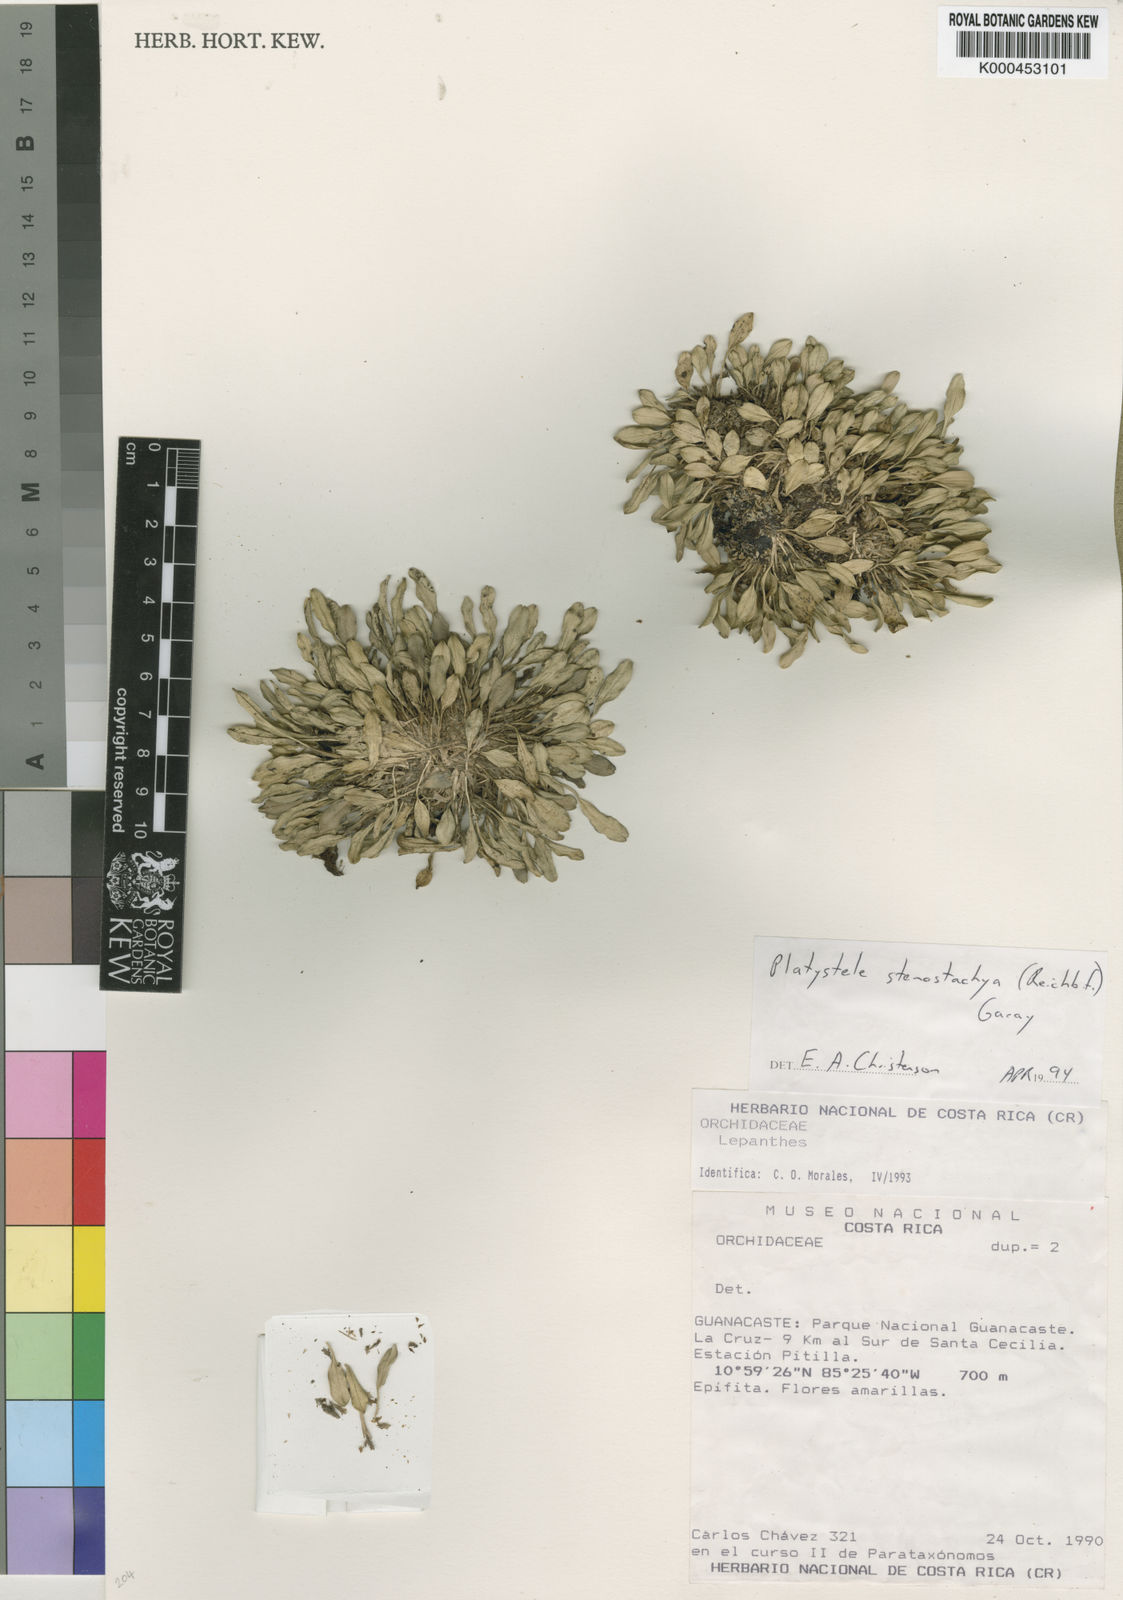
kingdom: Plantae
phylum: Tracheophyta
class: Liliopsida
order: Asparagales
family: Orchidaceae
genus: Platystele
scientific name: Platystele stenostachya
